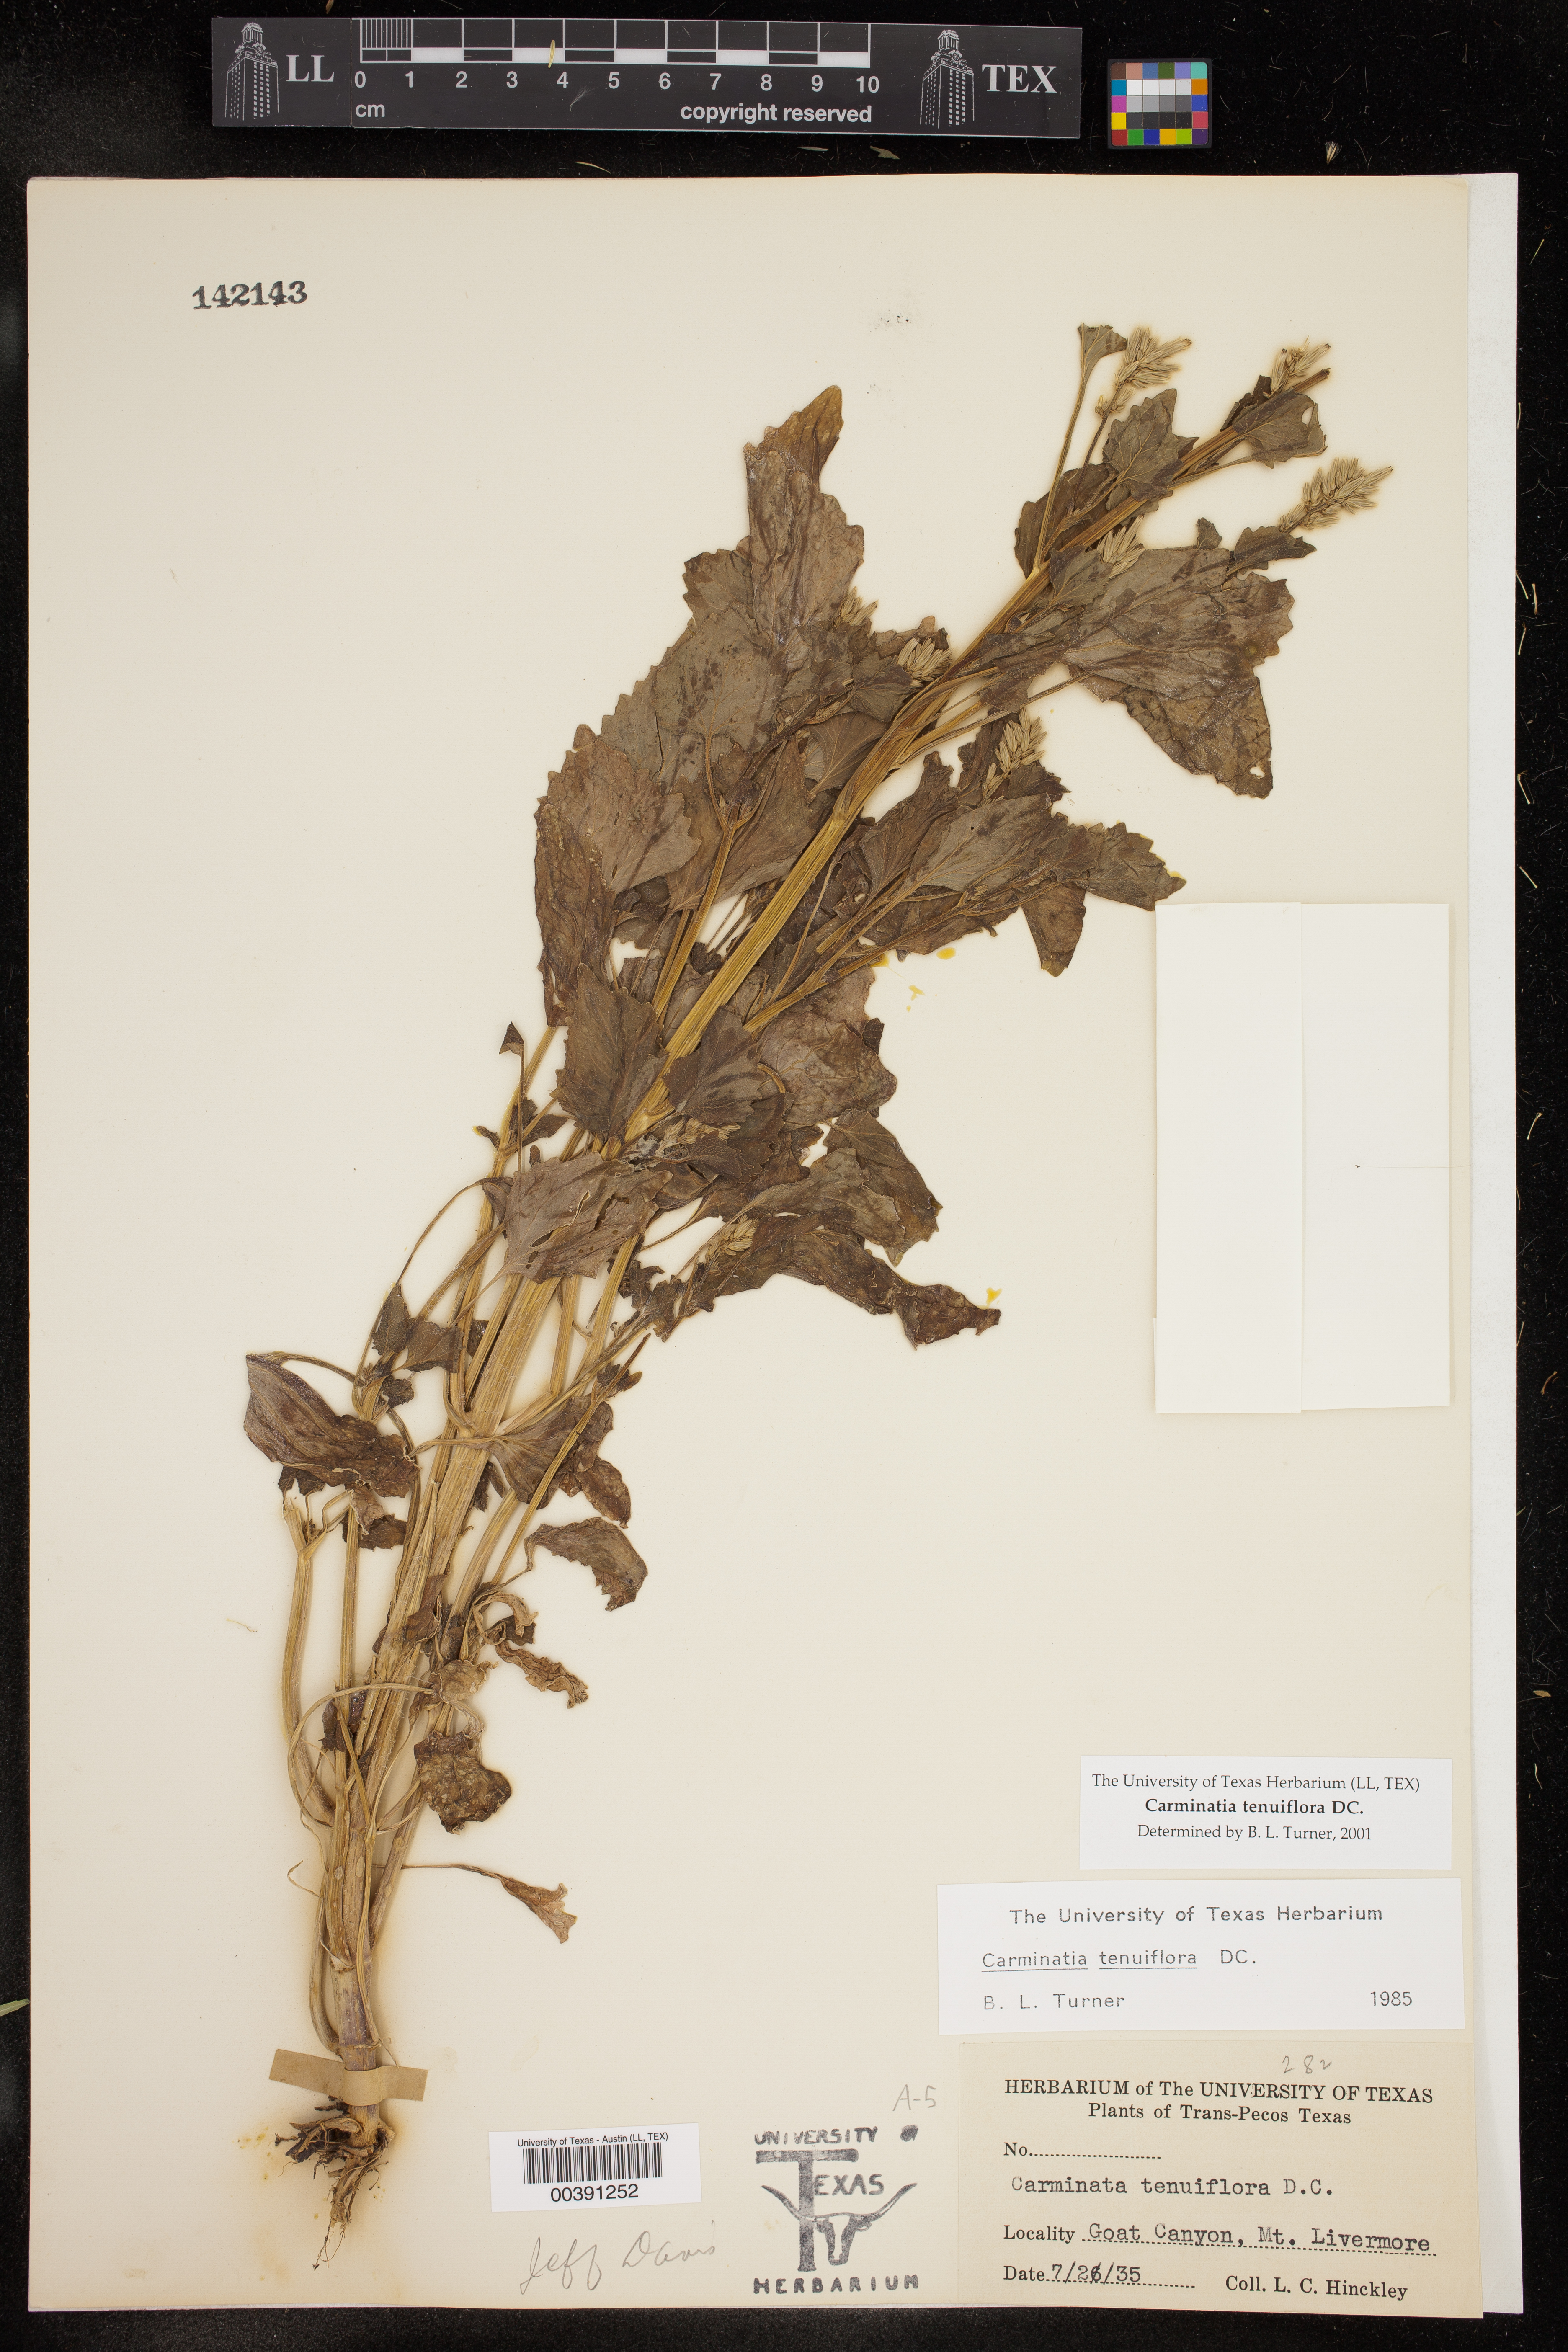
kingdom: Plantae
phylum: Tracheophyta
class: Magnoliopsida
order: Asterales
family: Asteraceae
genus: Carminatia
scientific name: Carminatia tenuiflora
